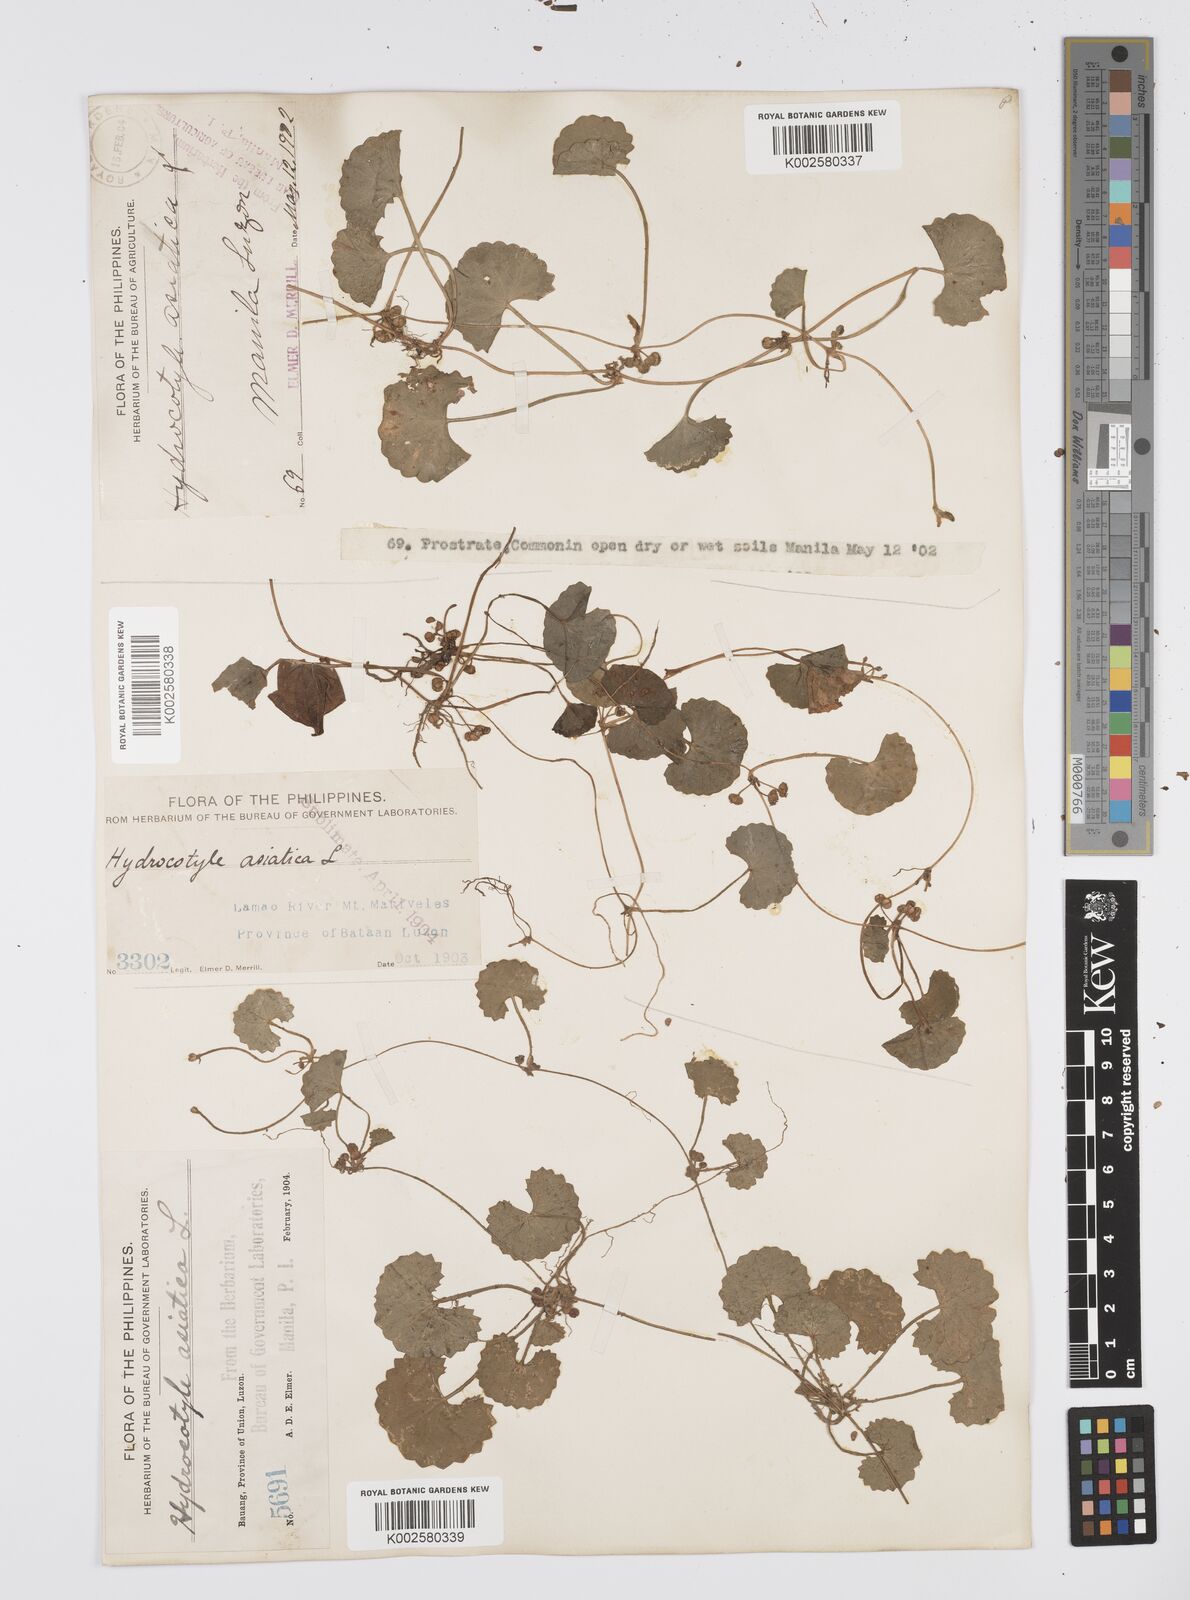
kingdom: Plantae
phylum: Tracheophyta
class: Magnoliopsida
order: Apiales
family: Apiaceae
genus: Centella
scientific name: Centella asiatica
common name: Spadeleaf
